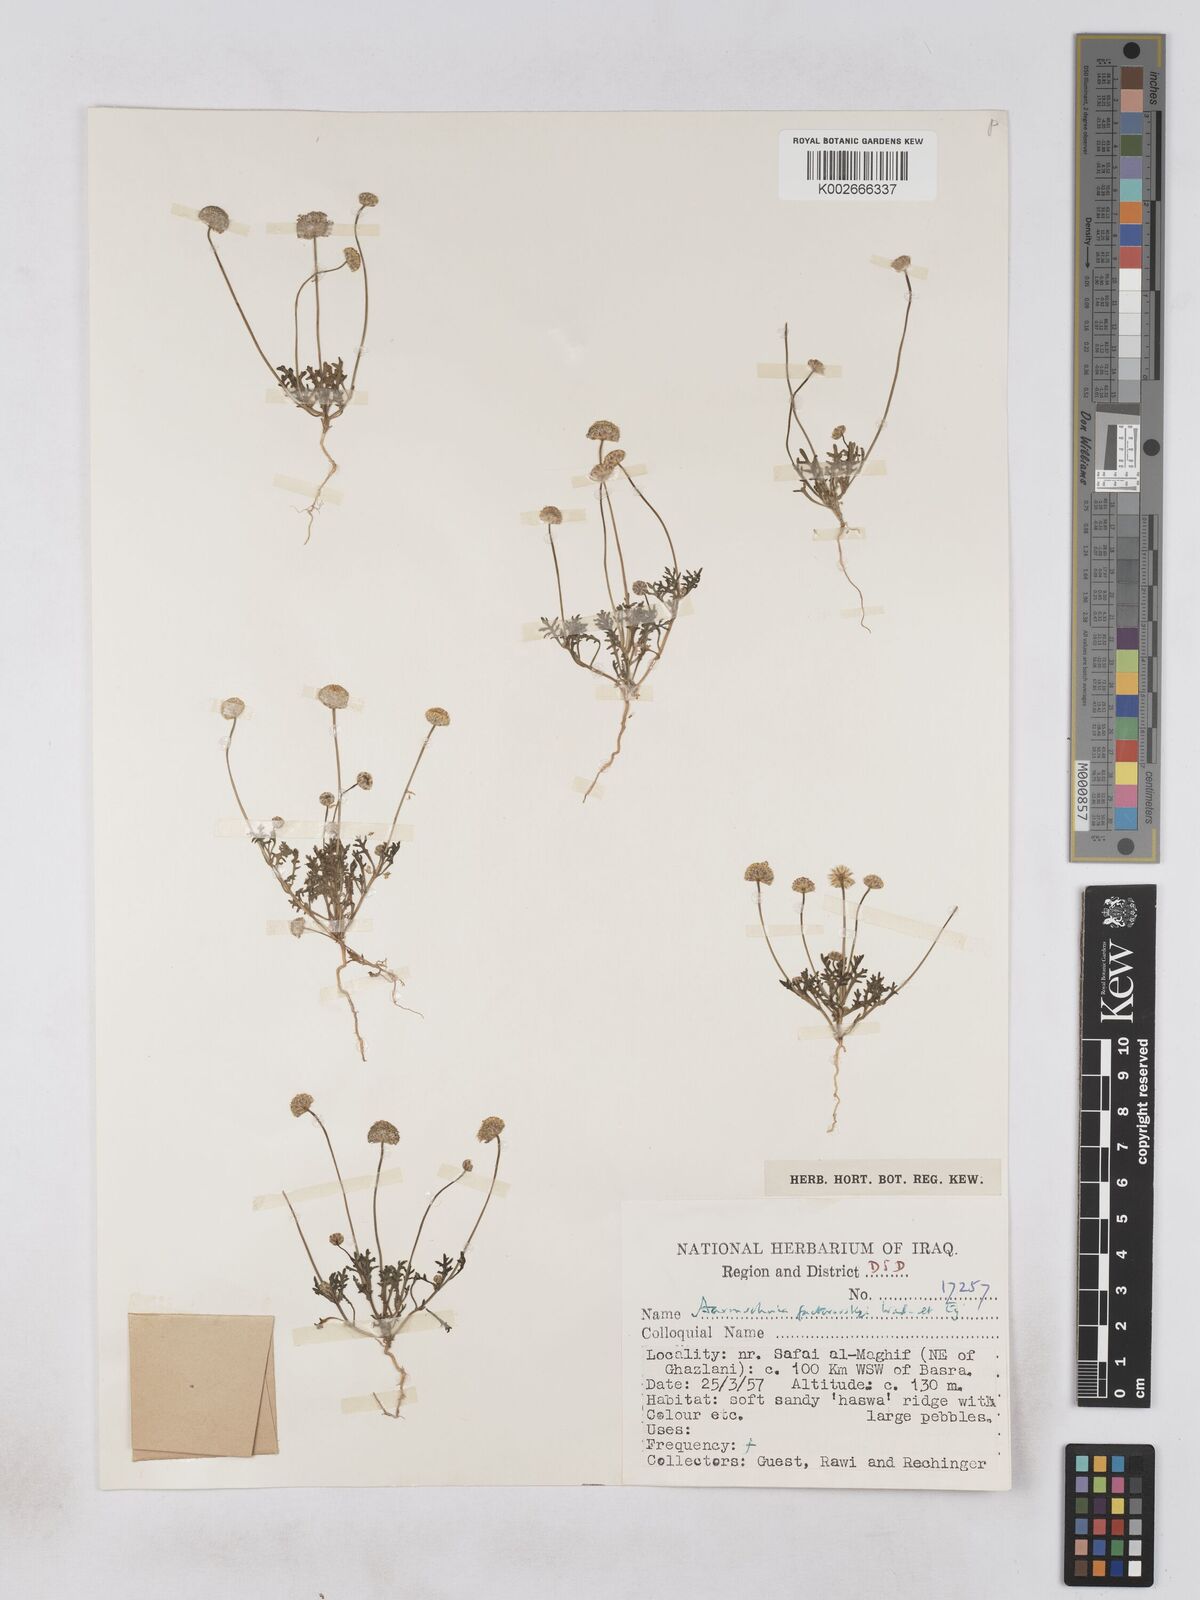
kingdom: Plantae
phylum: Tracheophyta
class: Magnoliopsida
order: Asterales
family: Asteraceae
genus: Otoglyphis
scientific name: Otoglyphis factorovskyi
